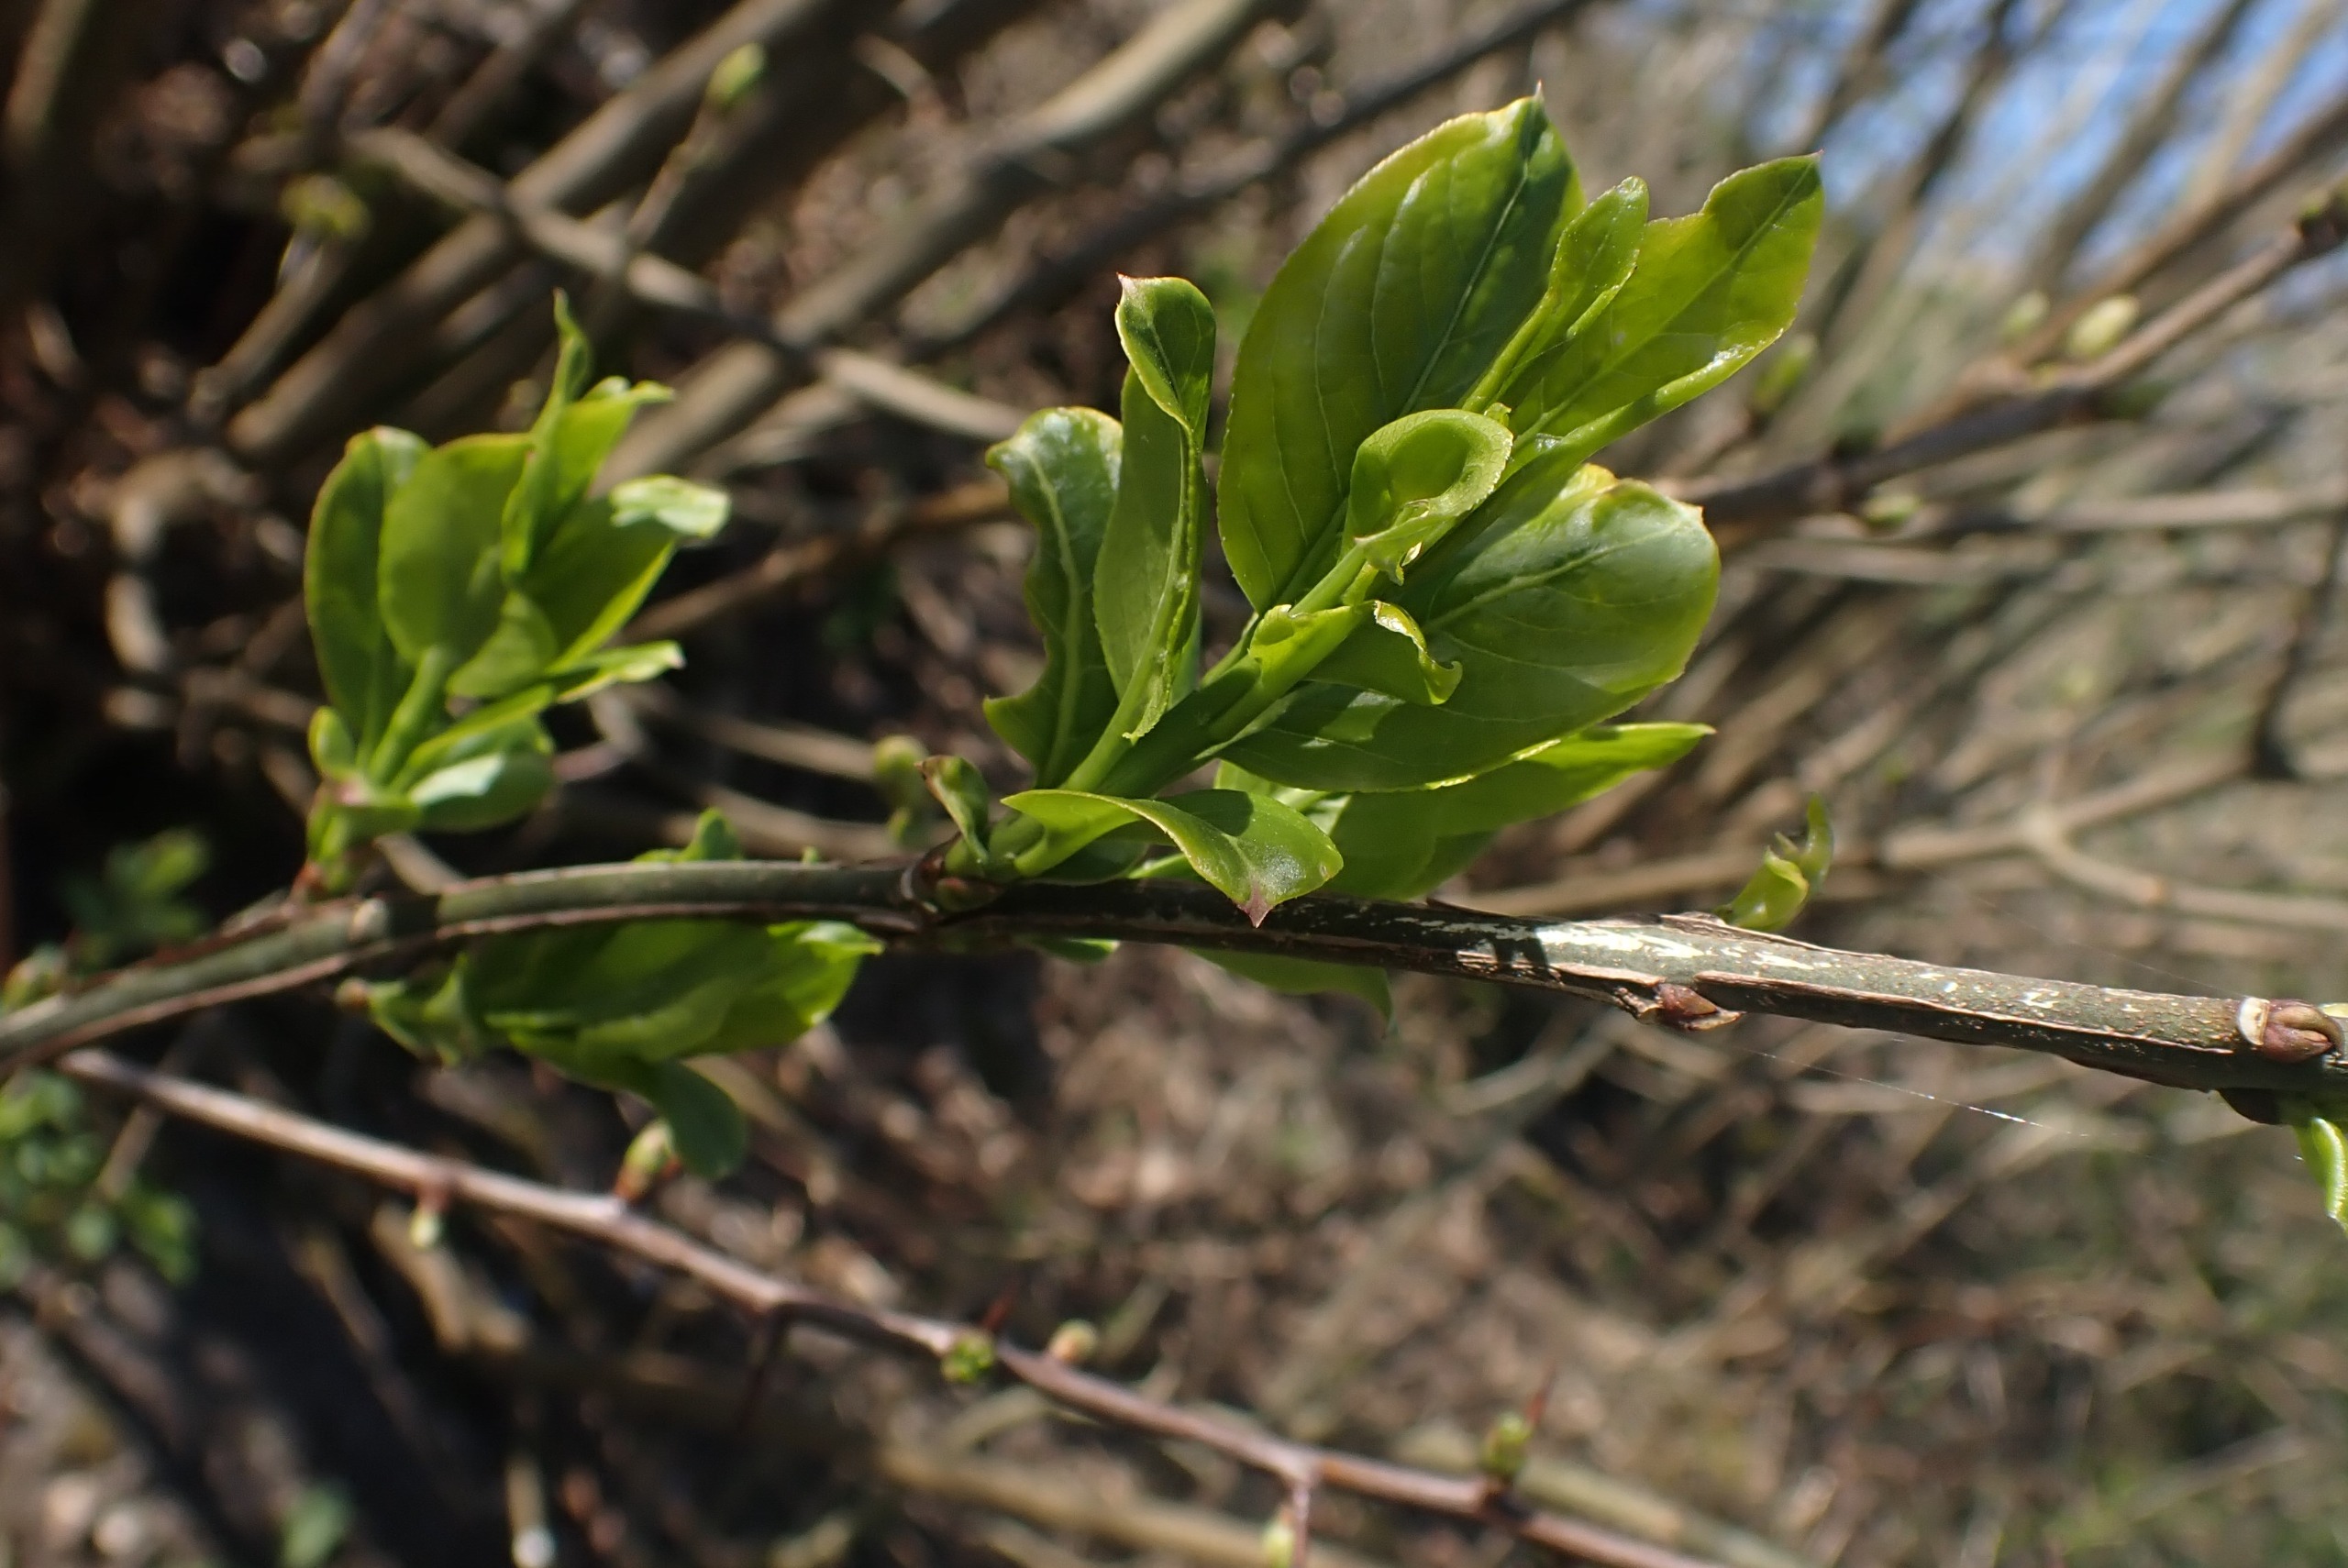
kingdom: Plantae
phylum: Tracheophyta
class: Magnoliopsida
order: Celastrales
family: Celastraceae
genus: Euonymus
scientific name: Euonymus europaeus
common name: Benved
